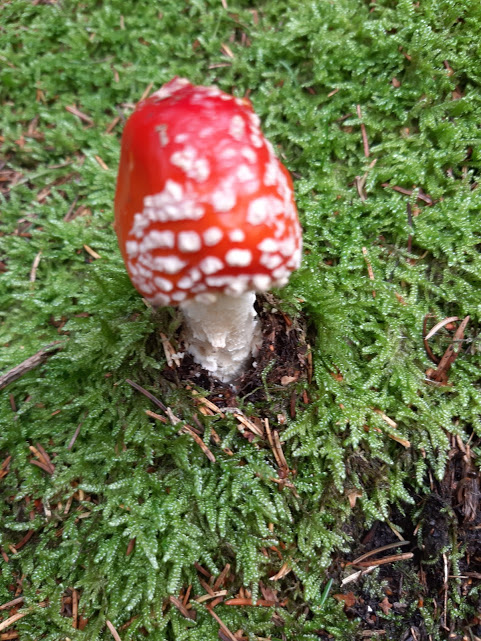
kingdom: Fungi
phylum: Basidiomycota
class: Agaricomycetes
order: Agaricales
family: Amanitaceae
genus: Amanita
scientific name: Amanita muscaria
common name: rød fluesvamp
